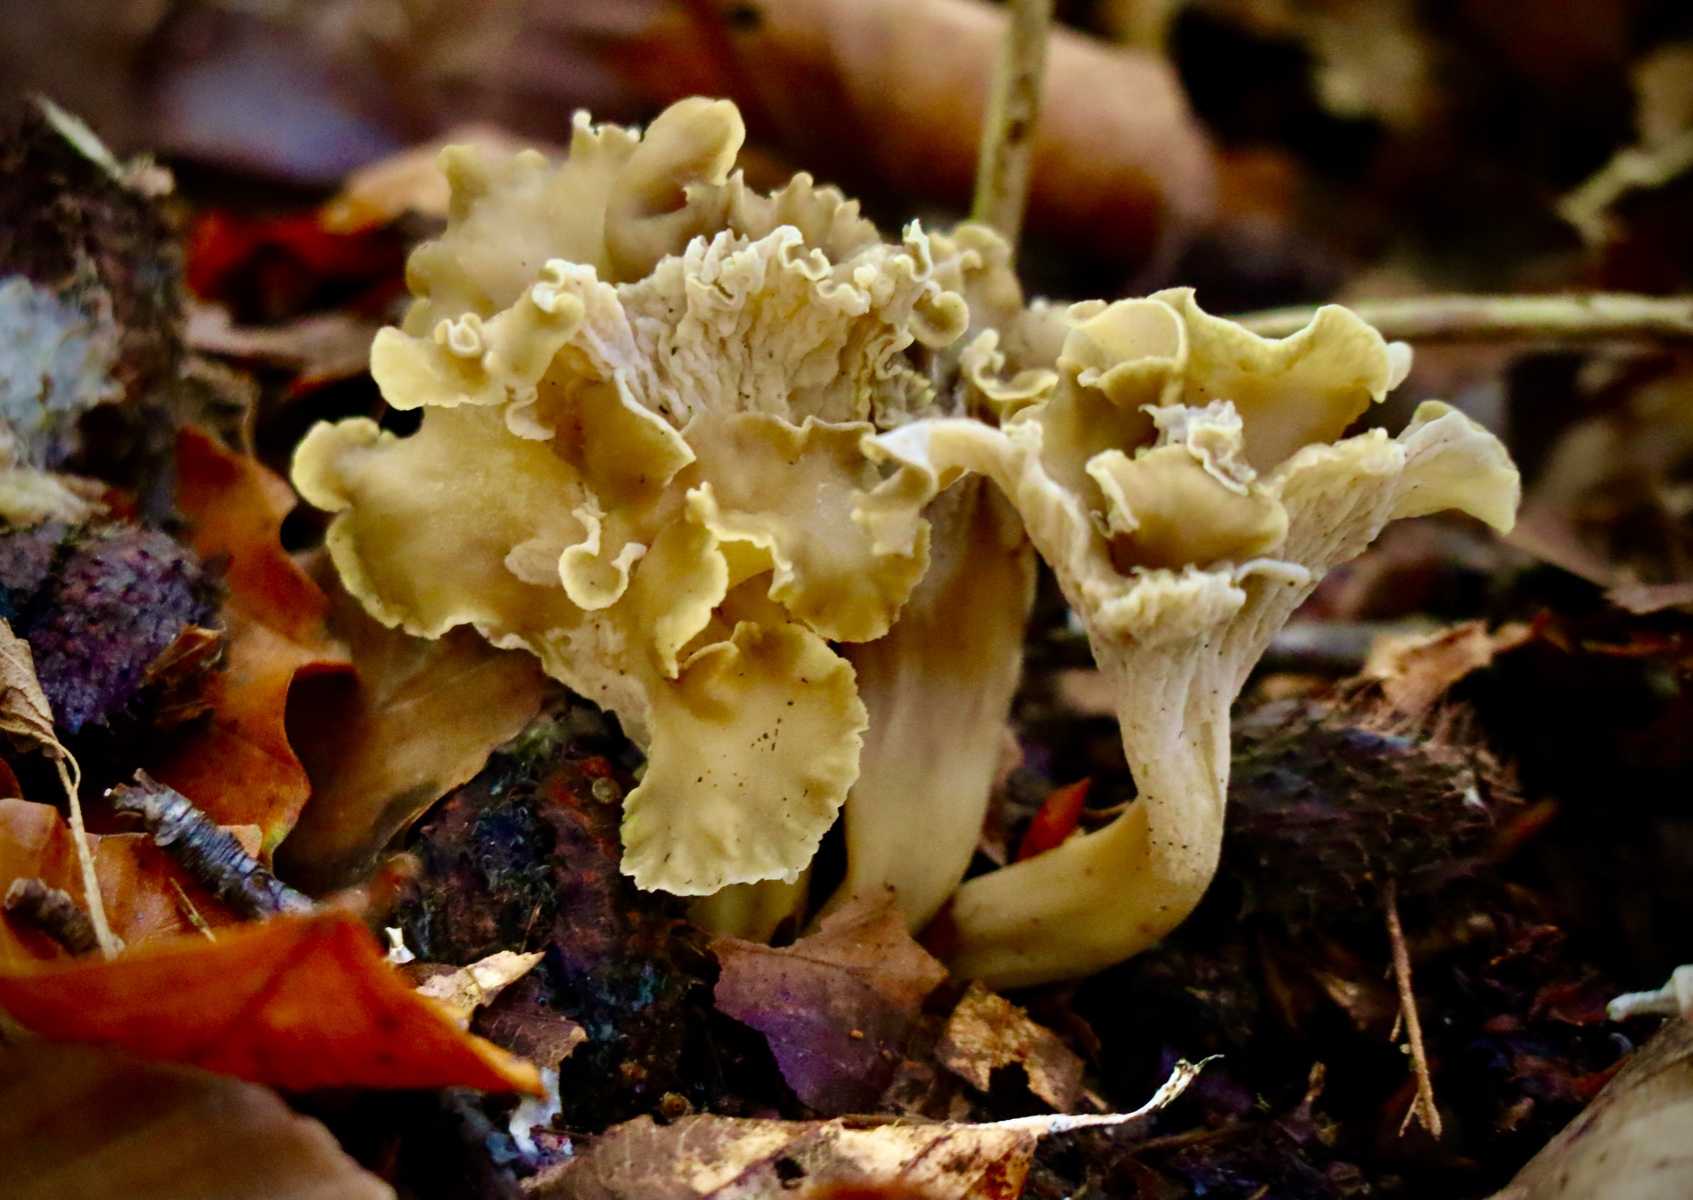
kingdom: Fungi
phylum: Basidiomycota
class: Agaricomycetes
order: Cantharellales
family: Hydnaceae
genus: Cantharellus
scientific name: Cantharellus melanoxeros
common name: sværtende kantarel
